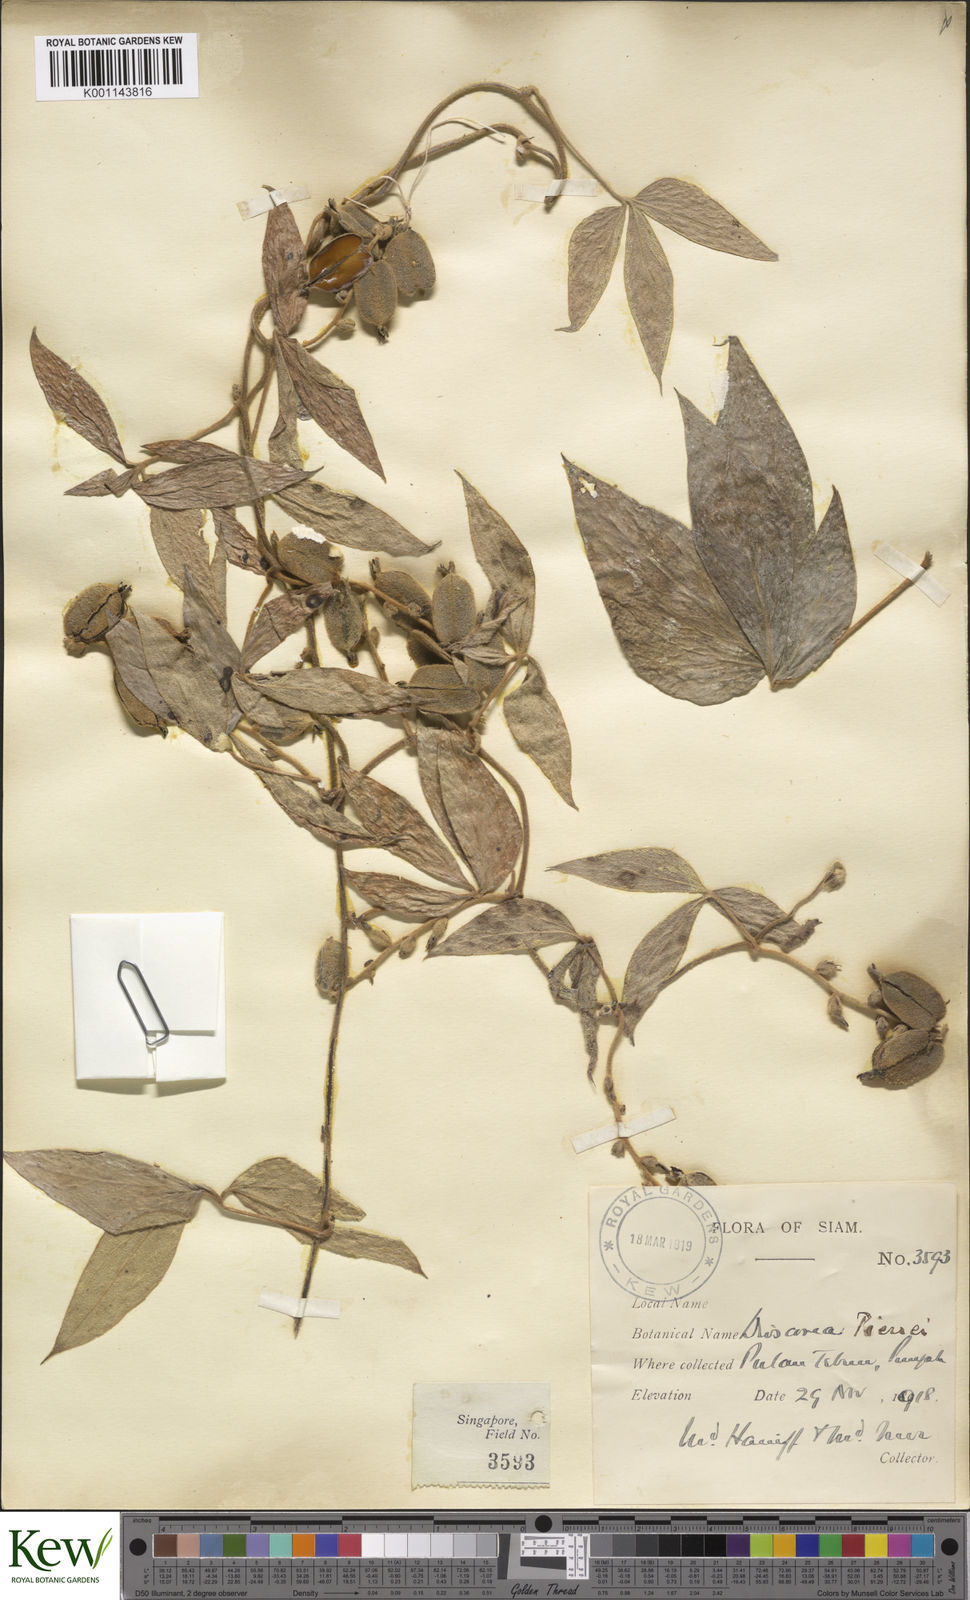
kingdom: Plantae
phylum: Tracheophyta
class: Liliopsida
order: Dioscoreales
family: Dioscoreaceae
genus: Dioscorea
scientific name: Dioscorea pierrei
